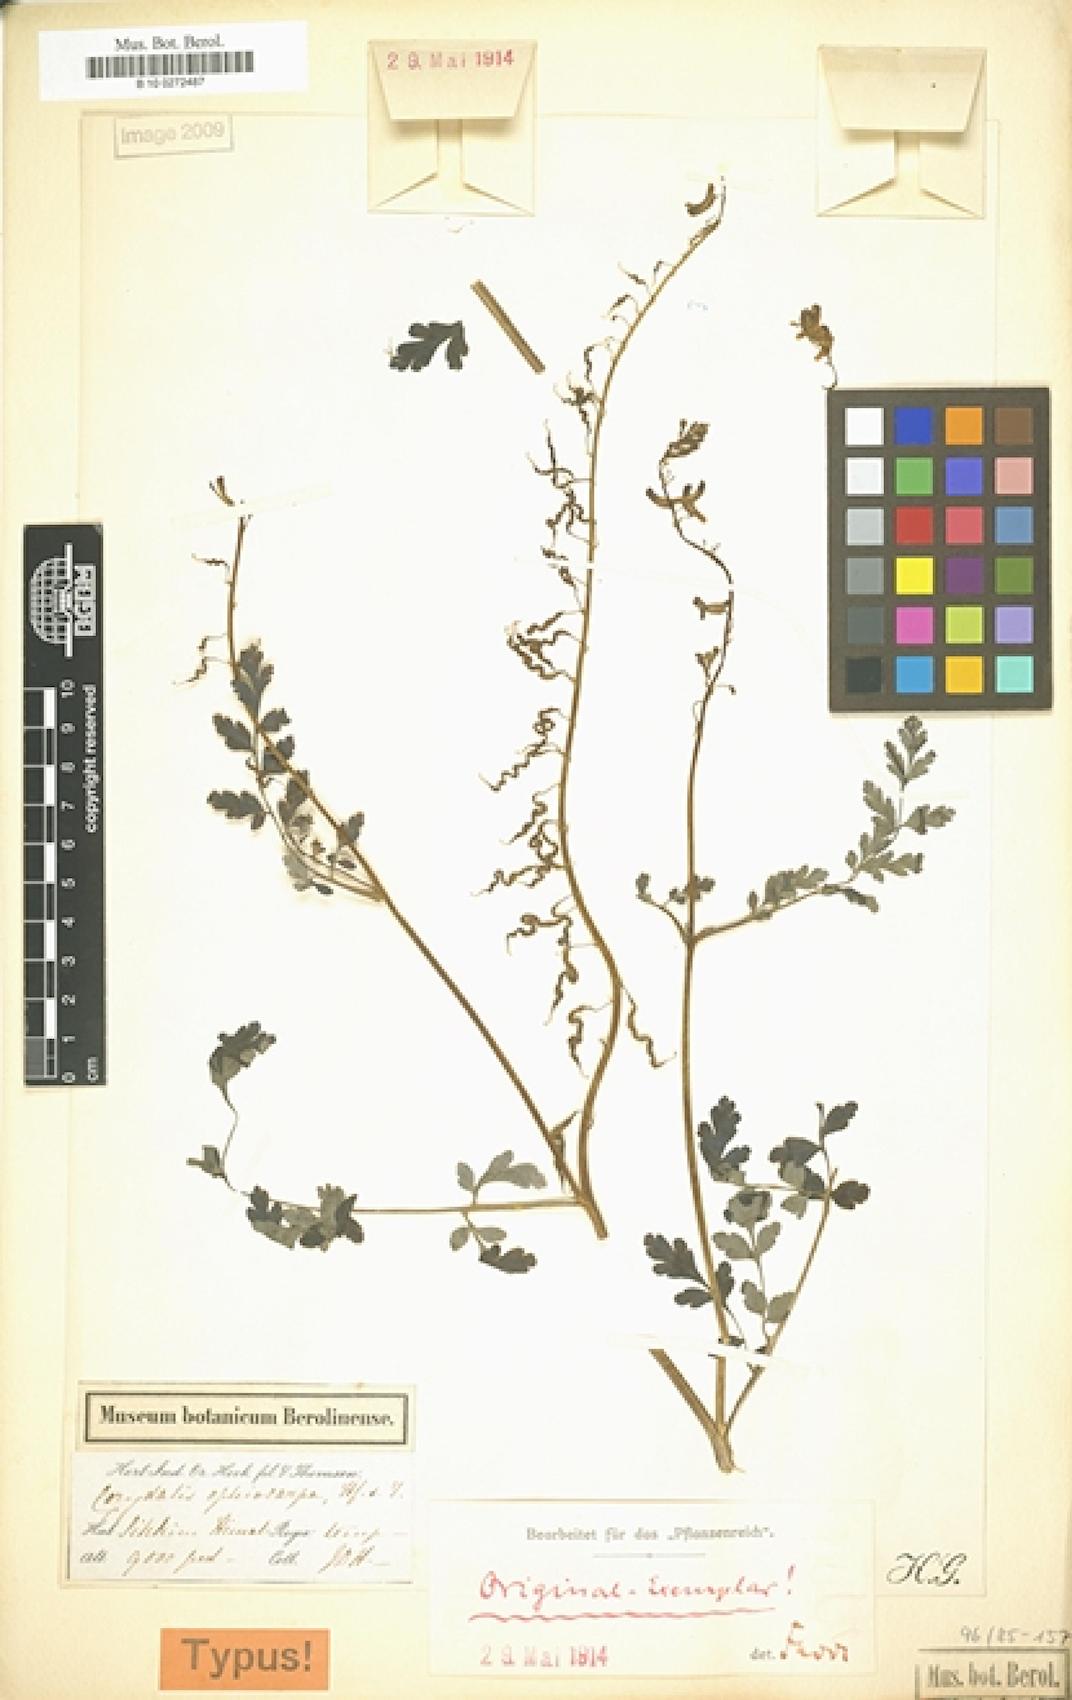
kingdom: Plantae
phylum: Tracheophyta
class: Magnoliopsida
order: Ranunculales
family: Papaveraceae
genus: Corydalis
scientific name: Corydalis ophiocarpa
